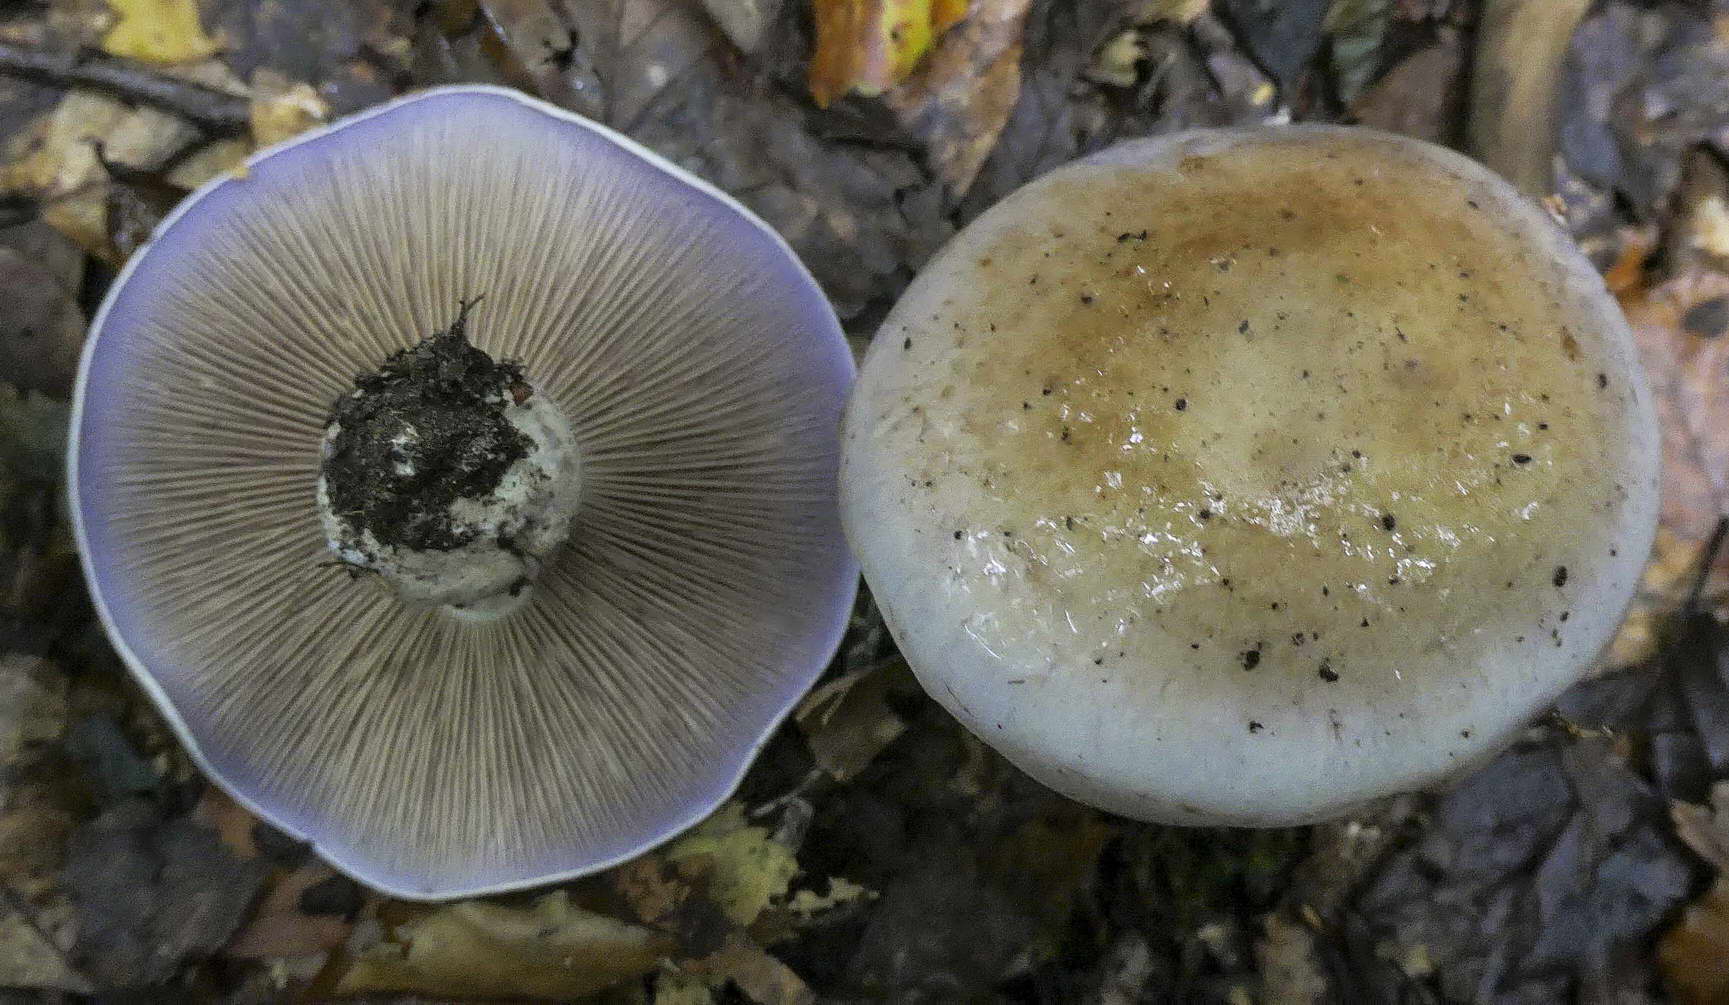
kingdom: Fungi
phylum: Basidiomycota
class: Agaricomycetes
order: Agaricales
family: Cortinariaceae
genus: Cortinarius
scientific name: Cortinarius largus
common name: violetrandet slørhat
